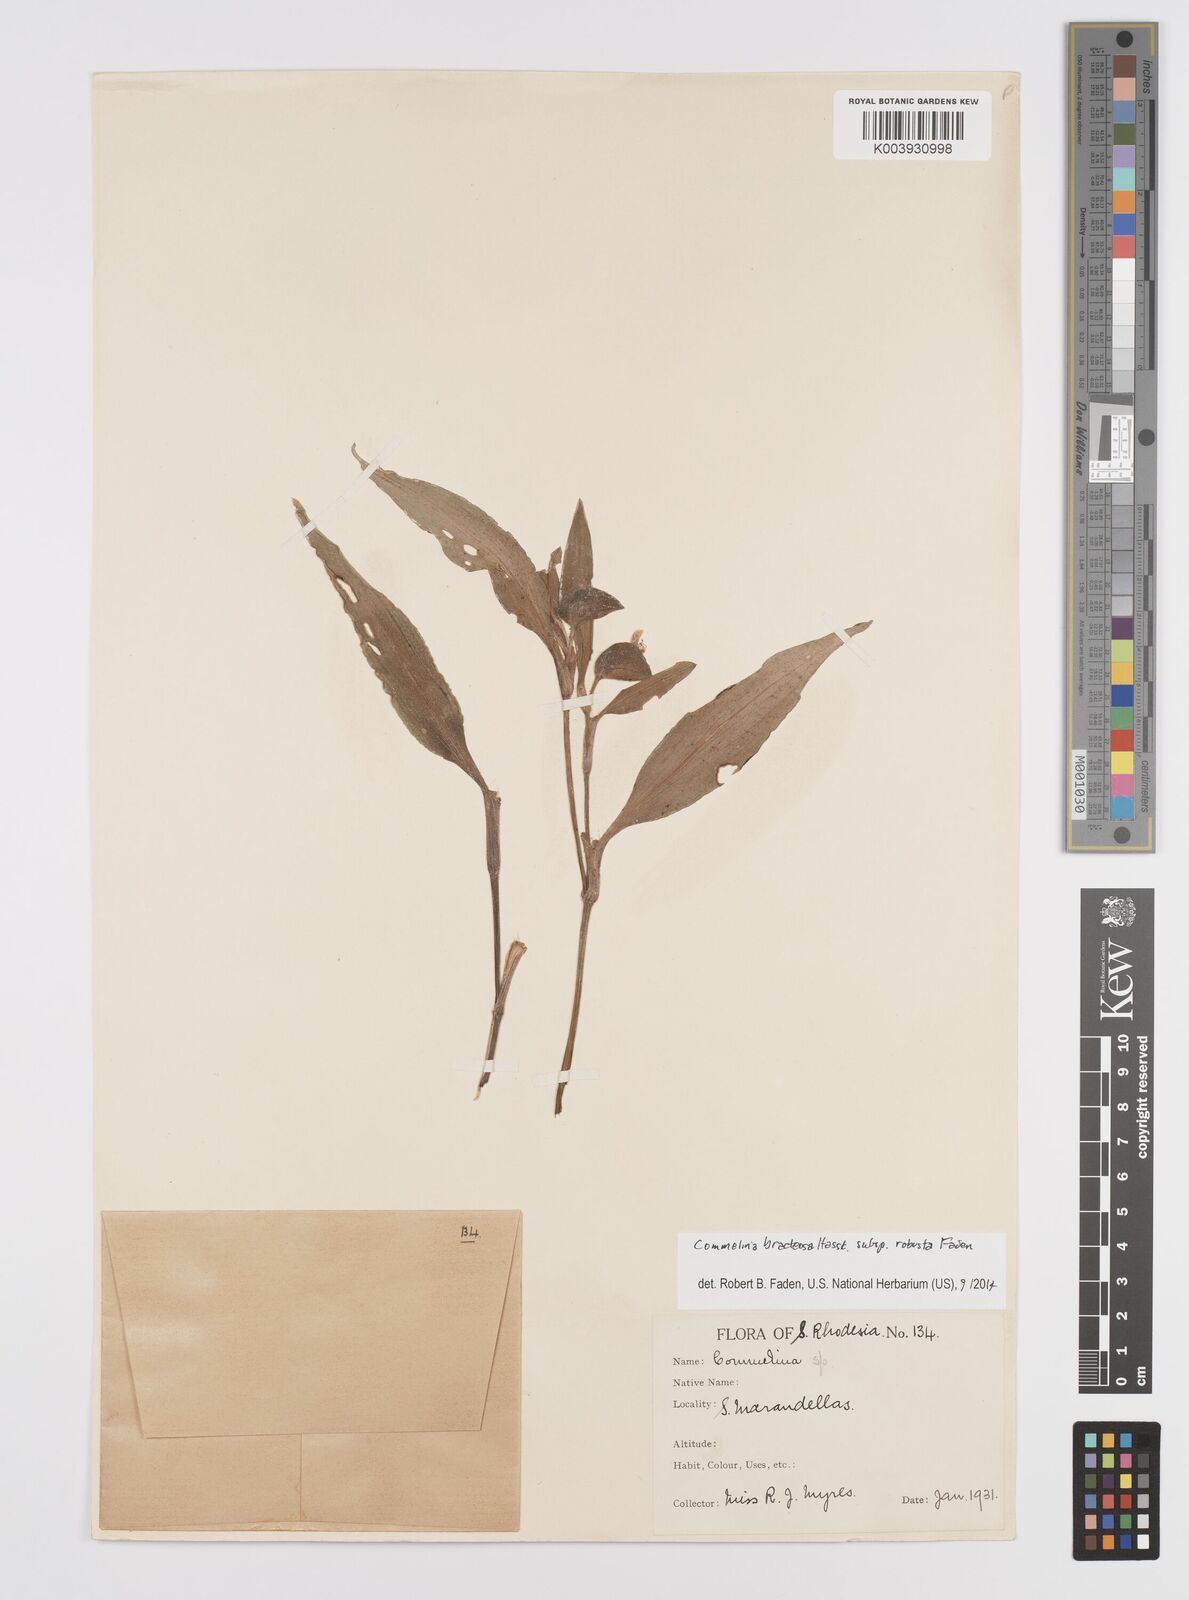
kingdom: Plantae
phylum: Tracheophyta
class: Liliopsida
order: Commelinales
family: Commelinaceae
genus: Commelina
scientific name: Commelina bracteosa
